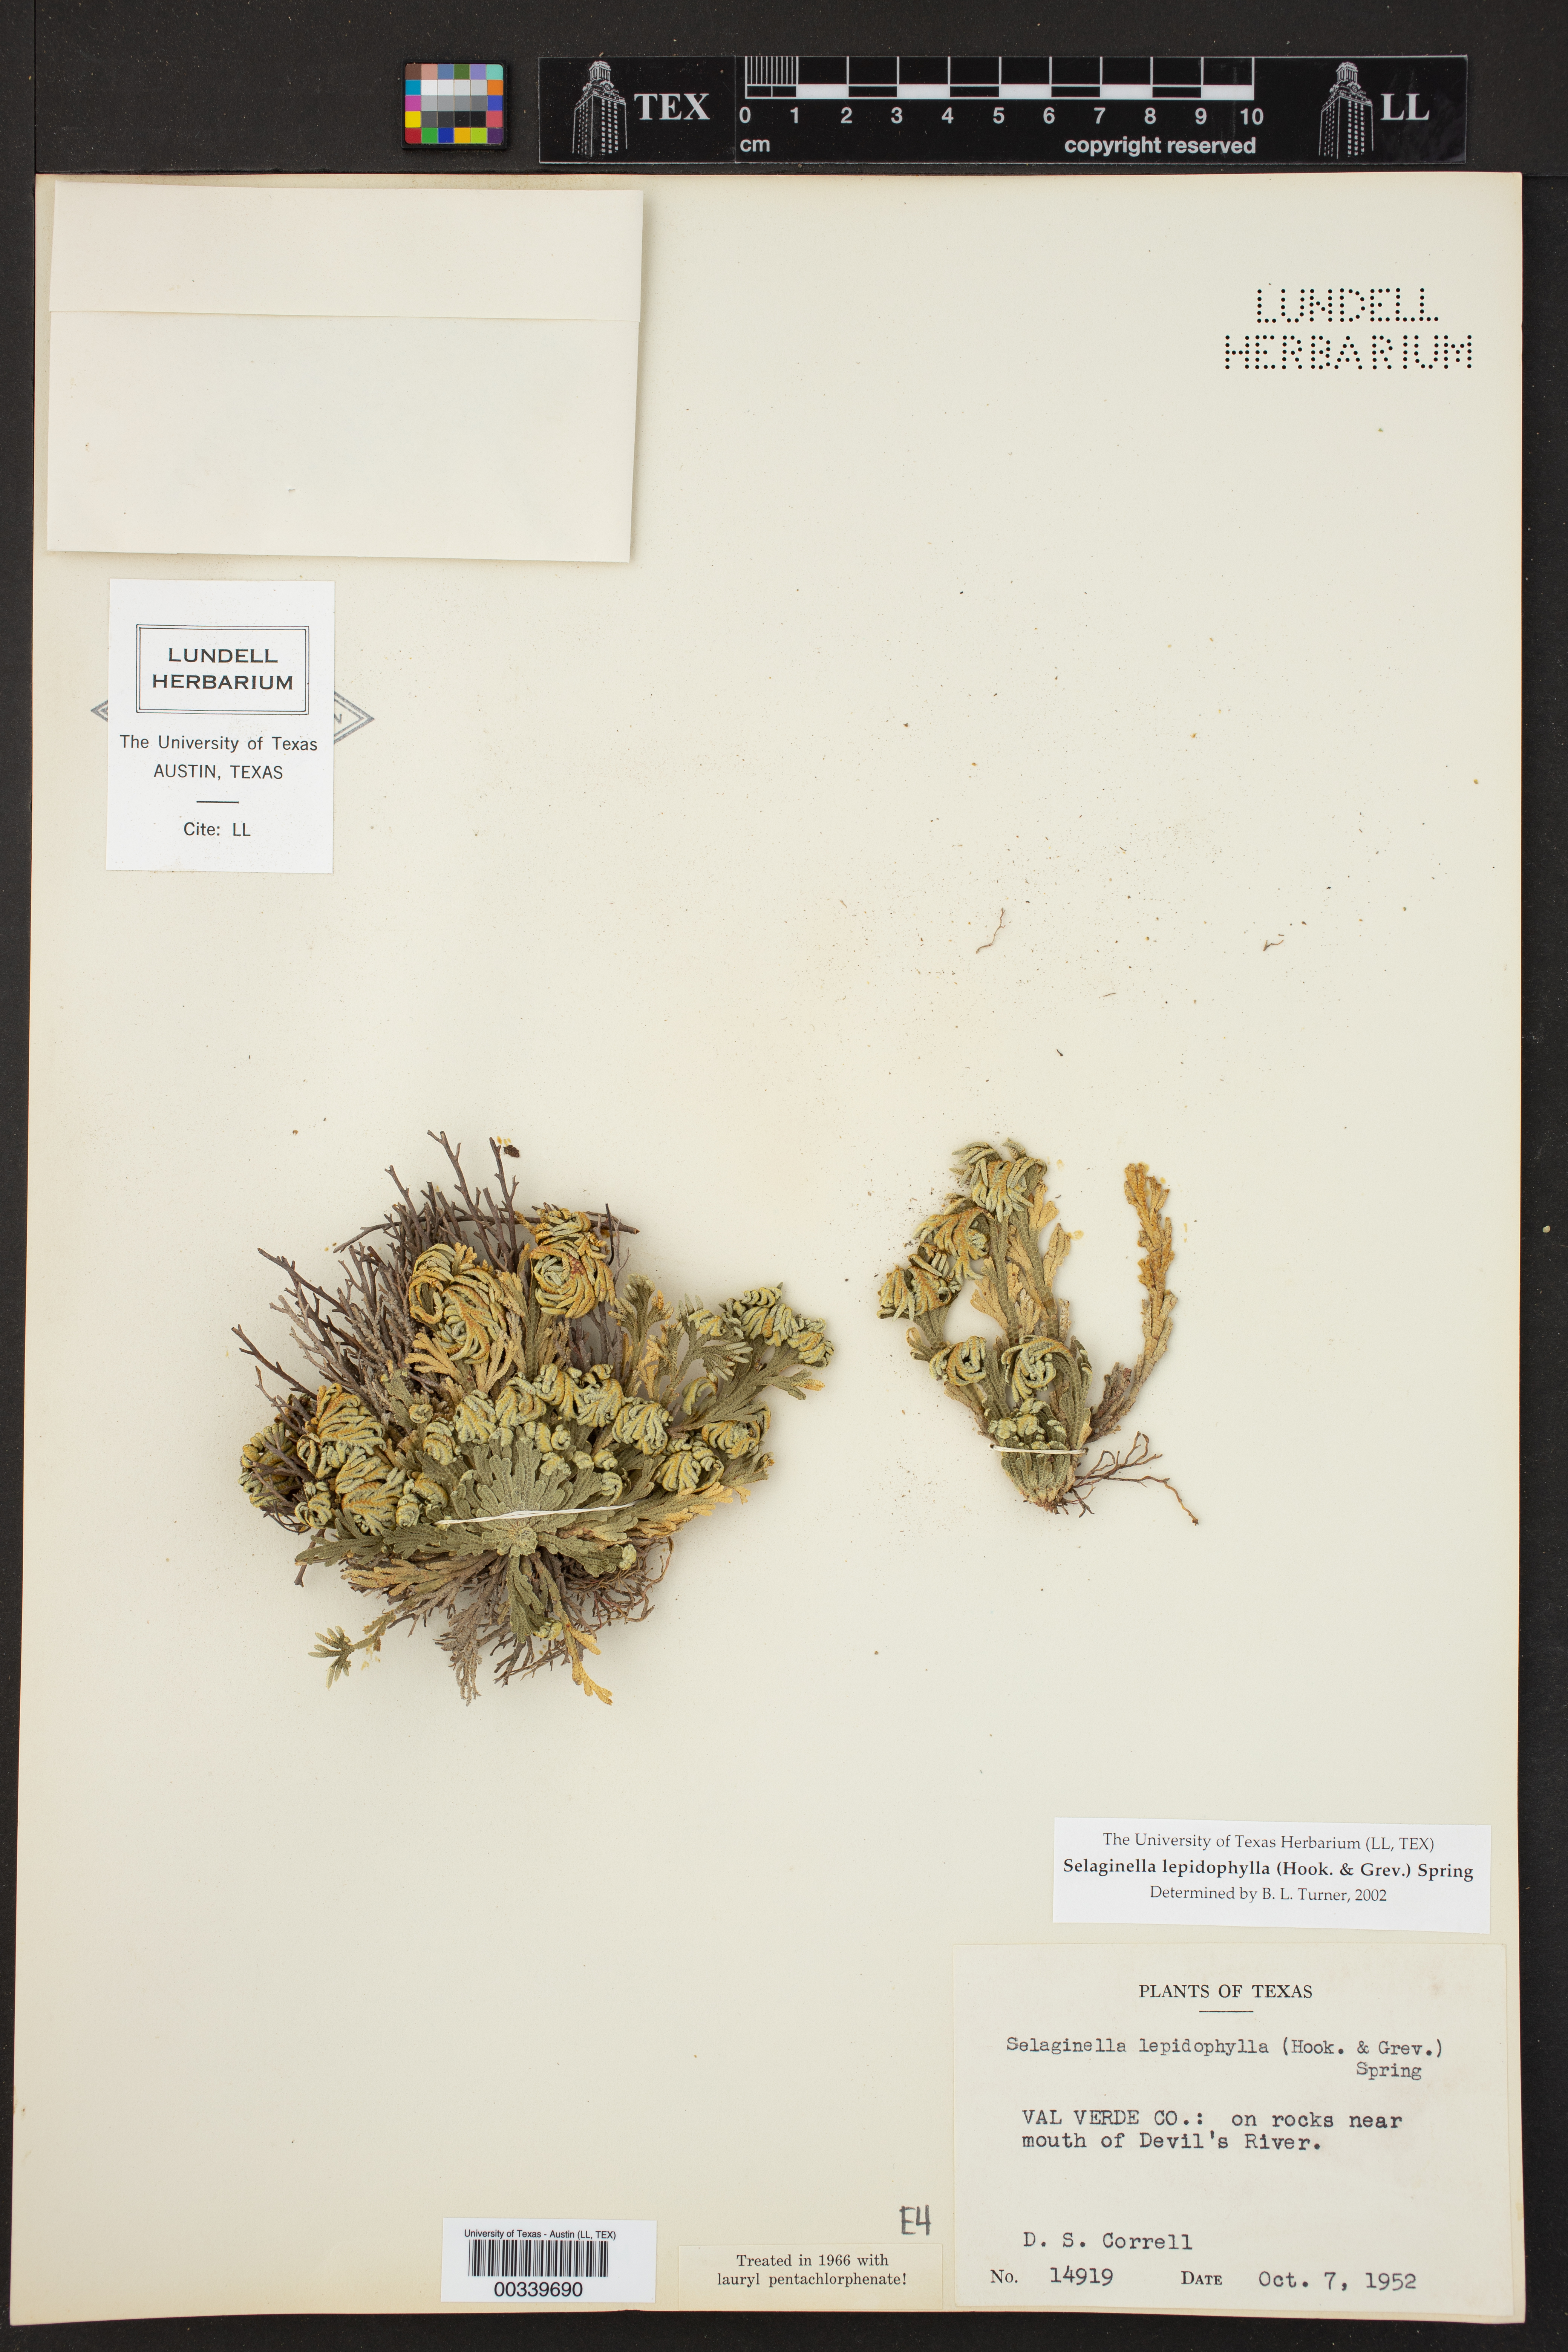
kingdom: Plantae
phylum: Tracheophyta
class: Lycopodiopsida
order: Selaginellales
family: Selaginellaceae
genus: Selaginella
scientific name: Selaginella lepidophylla
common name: Rose-of-jericho
